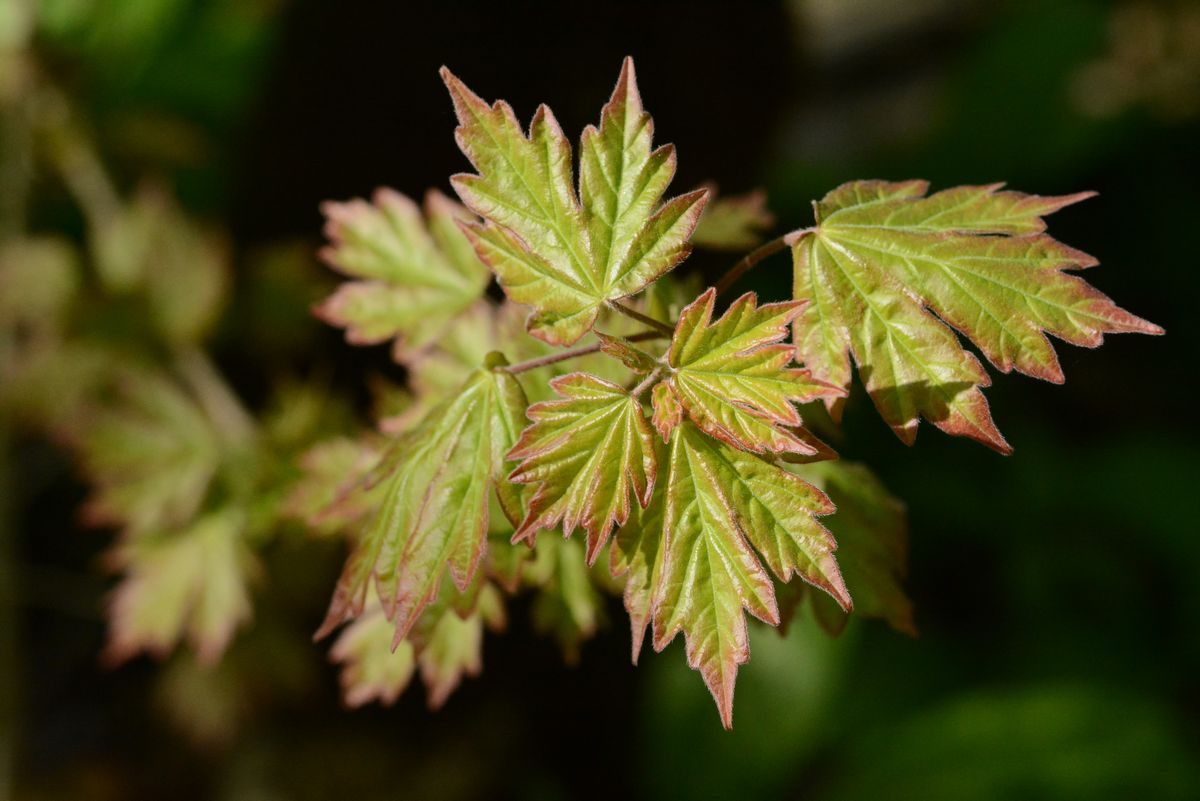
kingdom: Plantae
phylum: Tracheophyta
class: Magnoliopsida
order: Sapindales
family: Sapindaceae
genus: Acer
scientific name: Acer campestre
